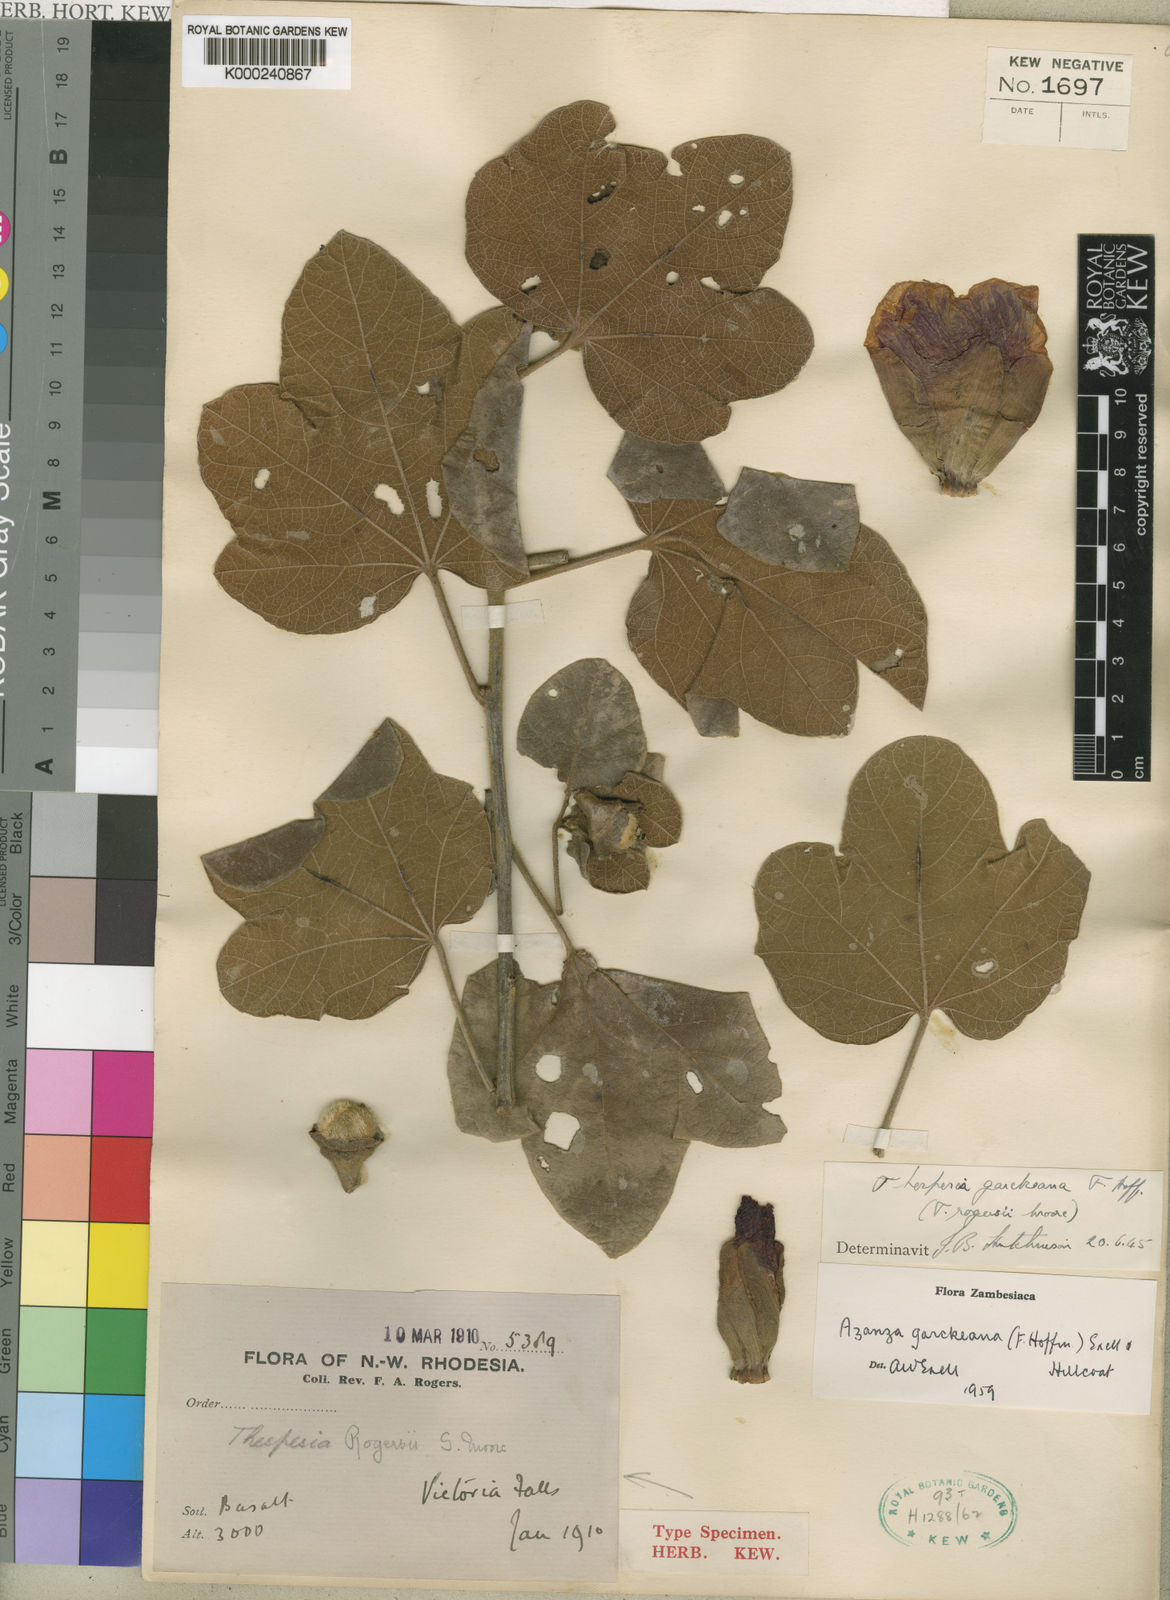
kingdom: Plantae
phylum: Tracheophyta
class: Magnoliopsida
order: Malvales
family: Malvaceae
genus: Thespesia
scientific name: Thespesia garckeana
